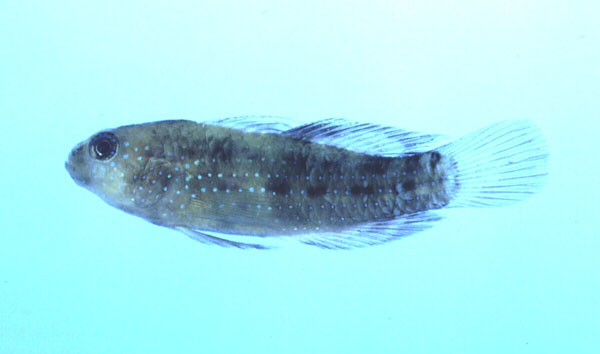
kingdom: Animalia
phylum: Chordata
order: Perciformes
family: Gobiidae
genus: Asterropteryx
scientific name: Asterropteryx semipunctata
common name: Starry goby
